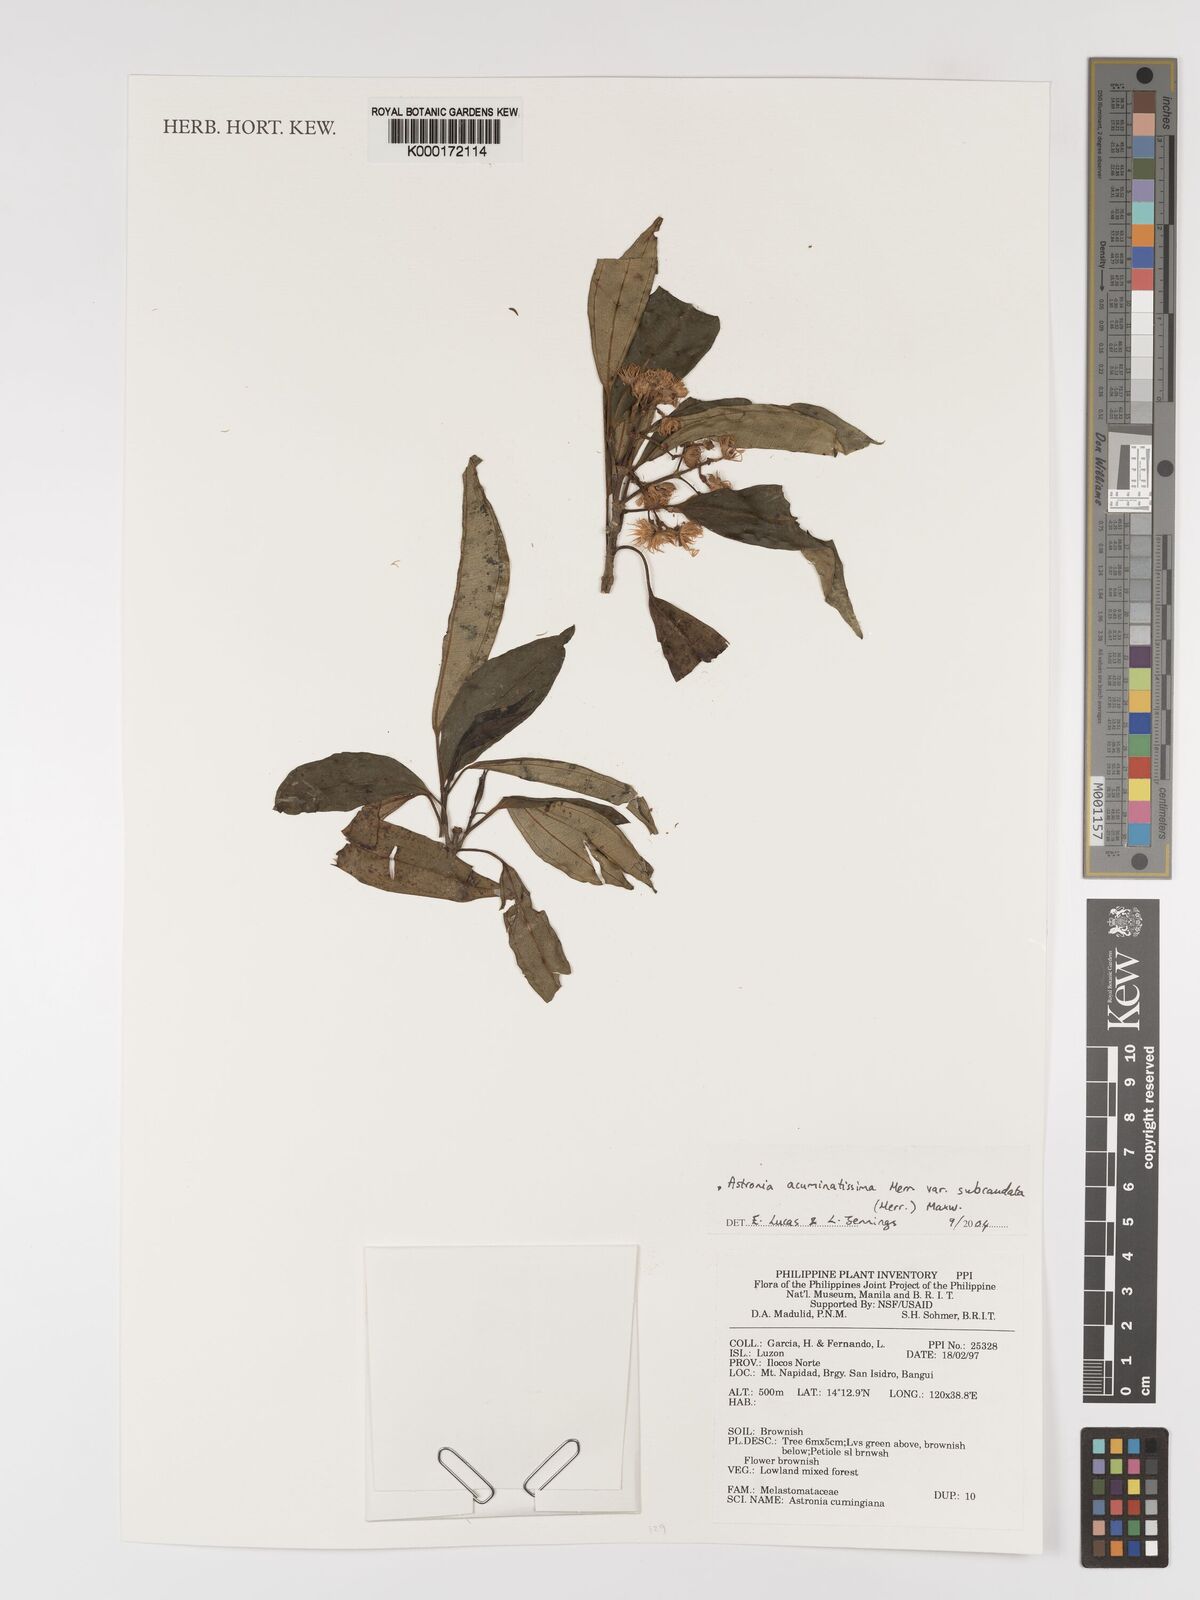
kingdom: Plantae
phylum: Tracheophyta
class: Magnoliopsida
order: Myrtales
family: Melastomataceae
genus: Astronia
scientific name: Astronia acuminatissima
